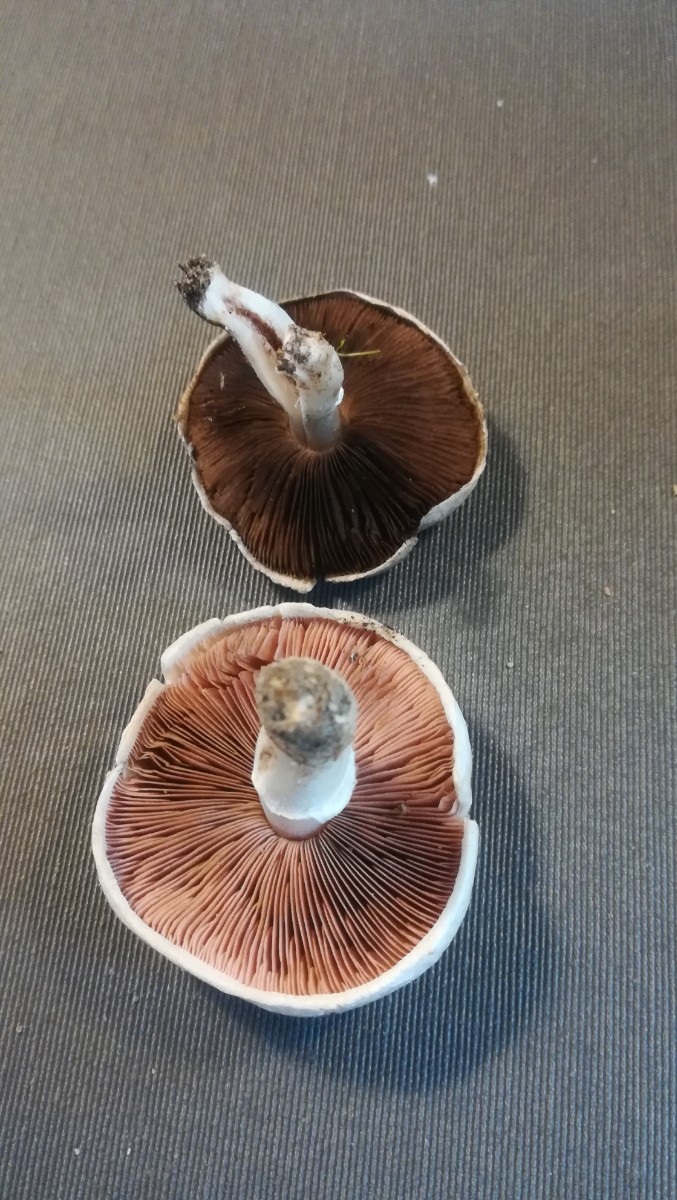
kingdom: Fungi
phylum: Basidiomycota
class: Agaricomycetes
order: Agaricales
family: Agaricaceae
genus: Agaricus
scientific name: Agaricus campestris
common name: mark-champignon
